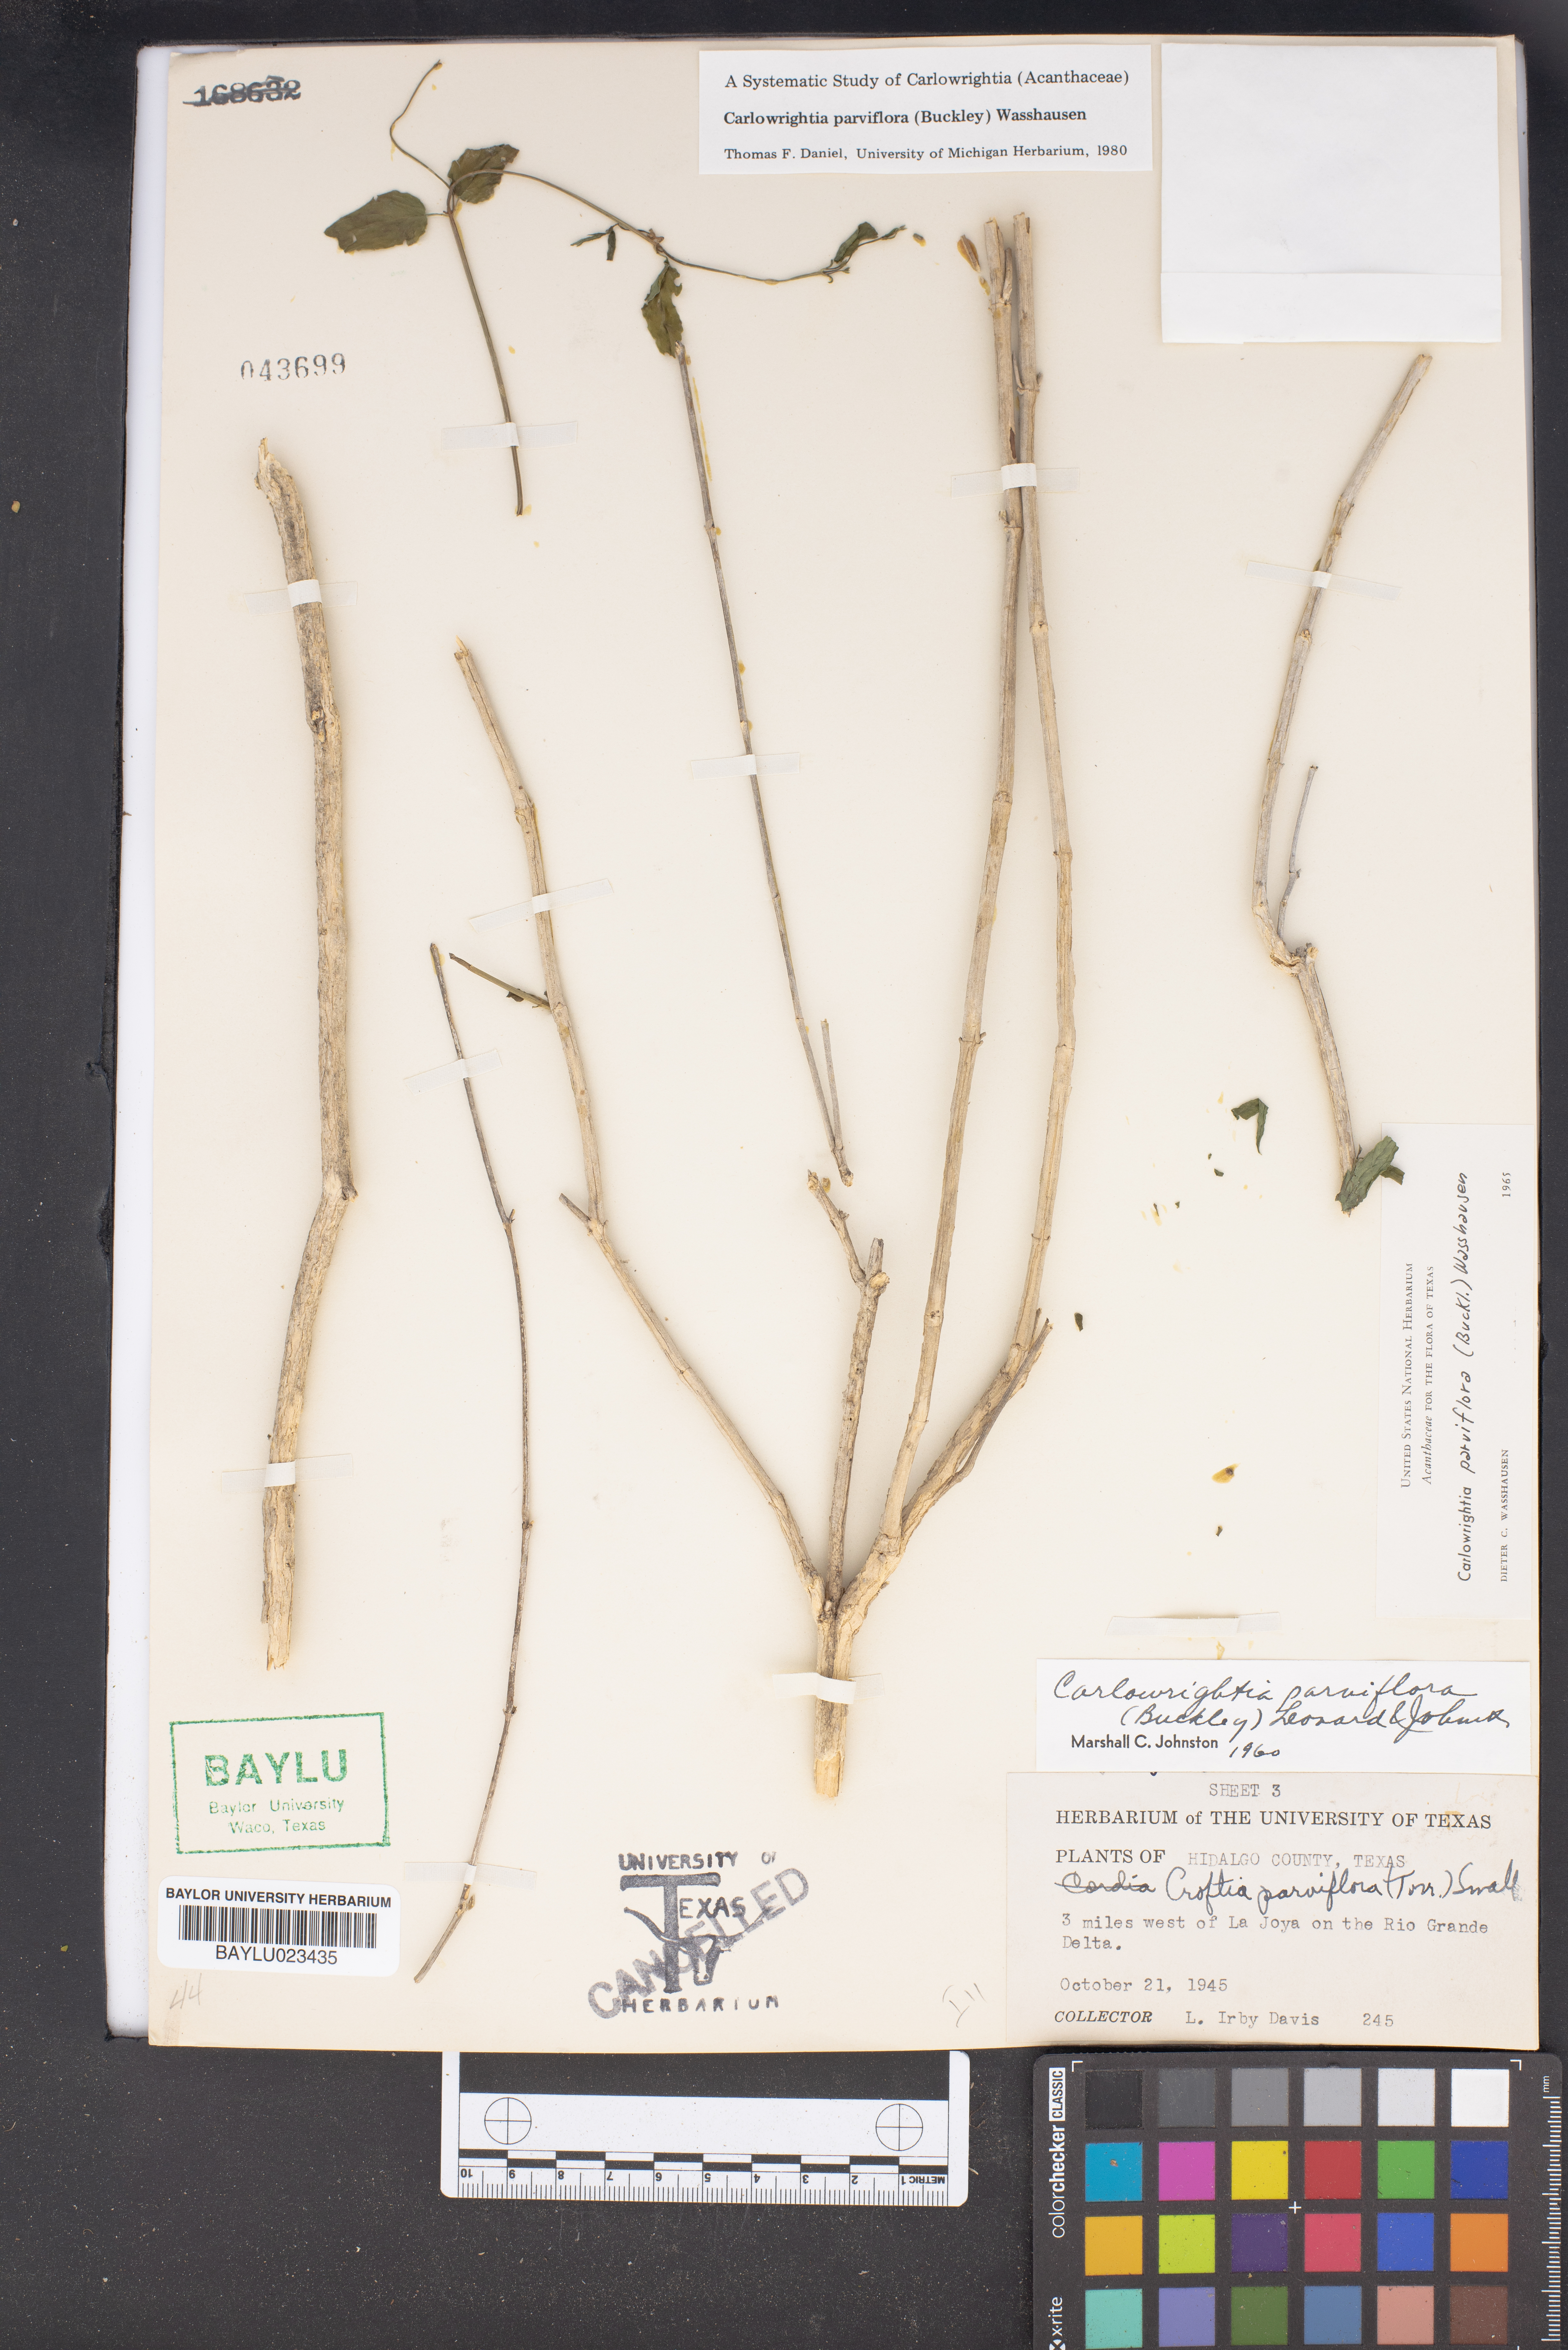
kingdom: Plantae
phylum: Tracheophyta
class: Magnoliopsida
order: Lamiales
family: Acanthaceae
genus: Carlowrightia
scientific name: Carlowrightia parviflora
